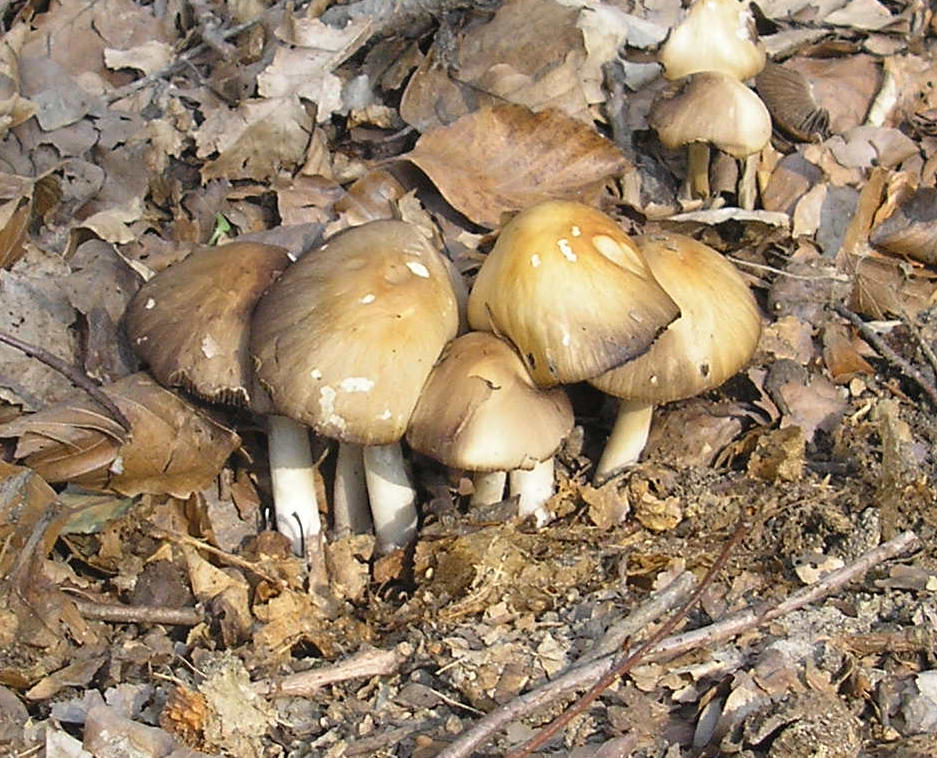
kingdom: Fungi
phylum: Basidiomycota
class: Agaricomycetes
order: Agaricales
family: Psathyrellaceae
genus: Psathyrella
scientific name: Psathyrella spadiceogrisea
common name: gråbrun mørkhat
